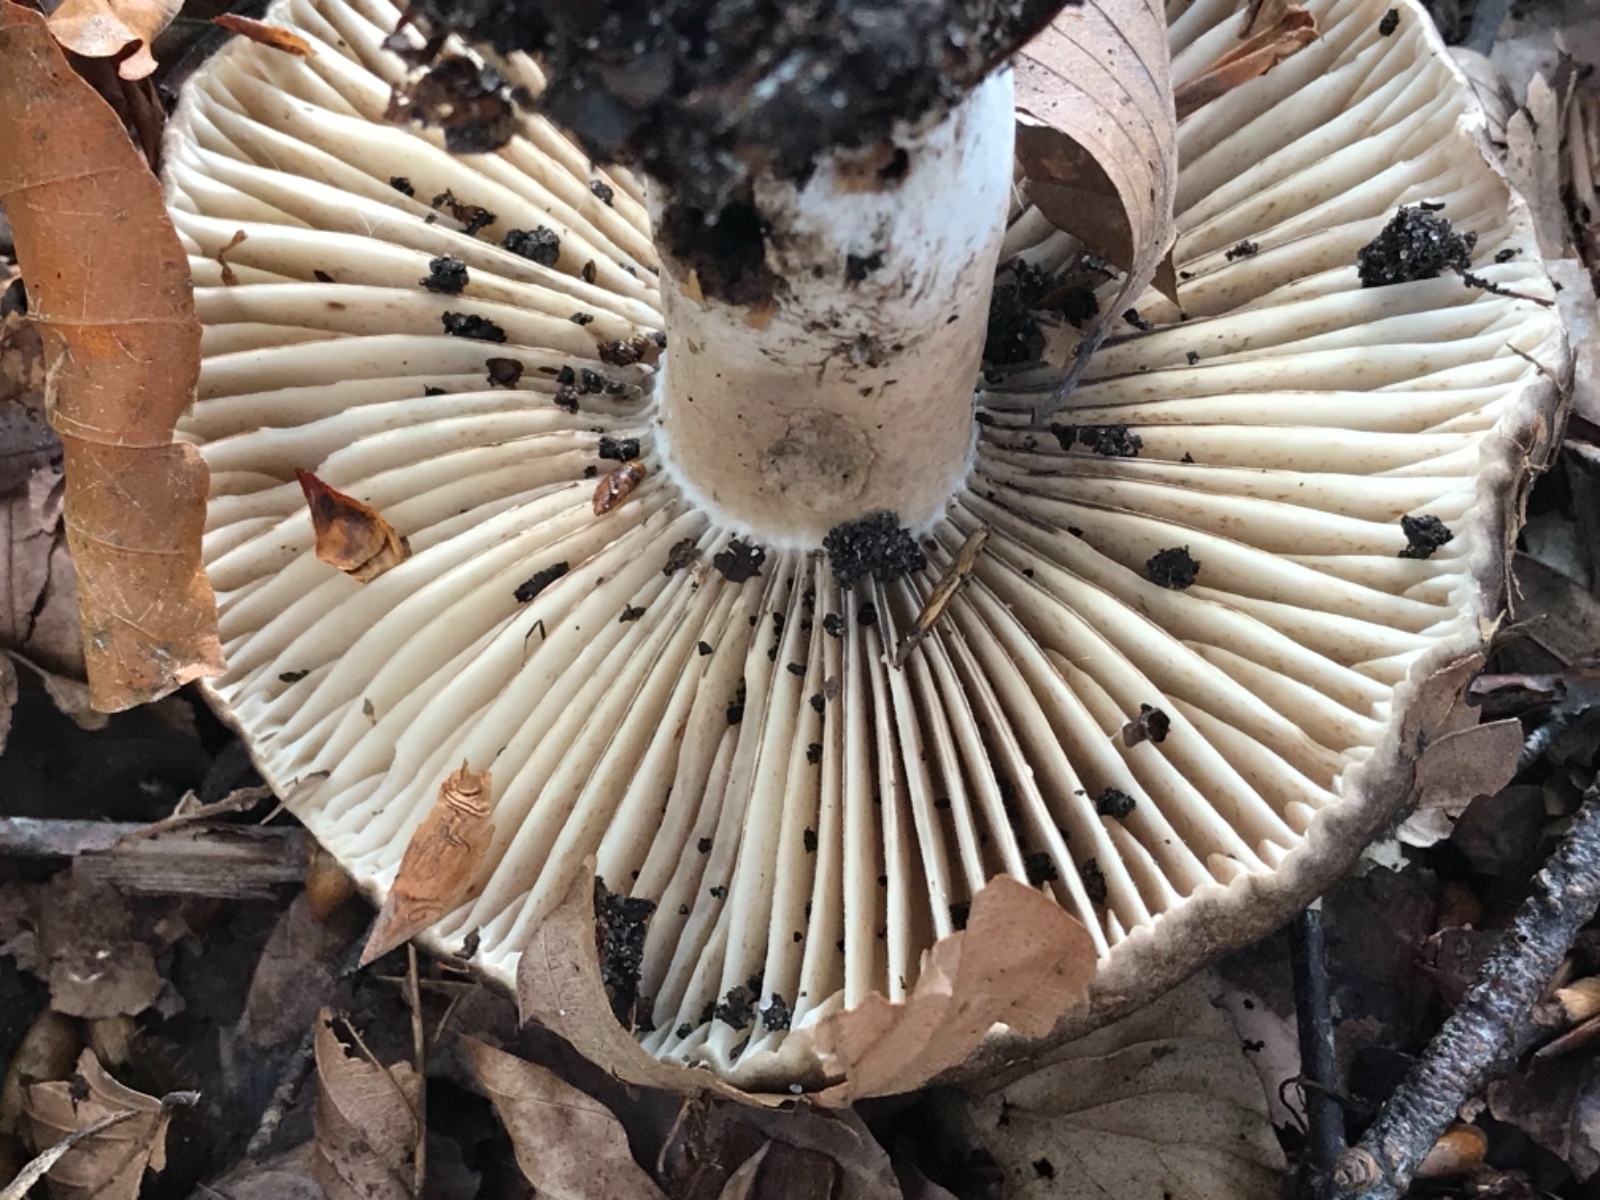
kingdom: Fungi
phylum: Basidiomycota
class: Agaricomycetes
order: Russulales
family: Russulaceae
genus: Russula
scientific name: Russula adusta
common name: sværtende skørhat
